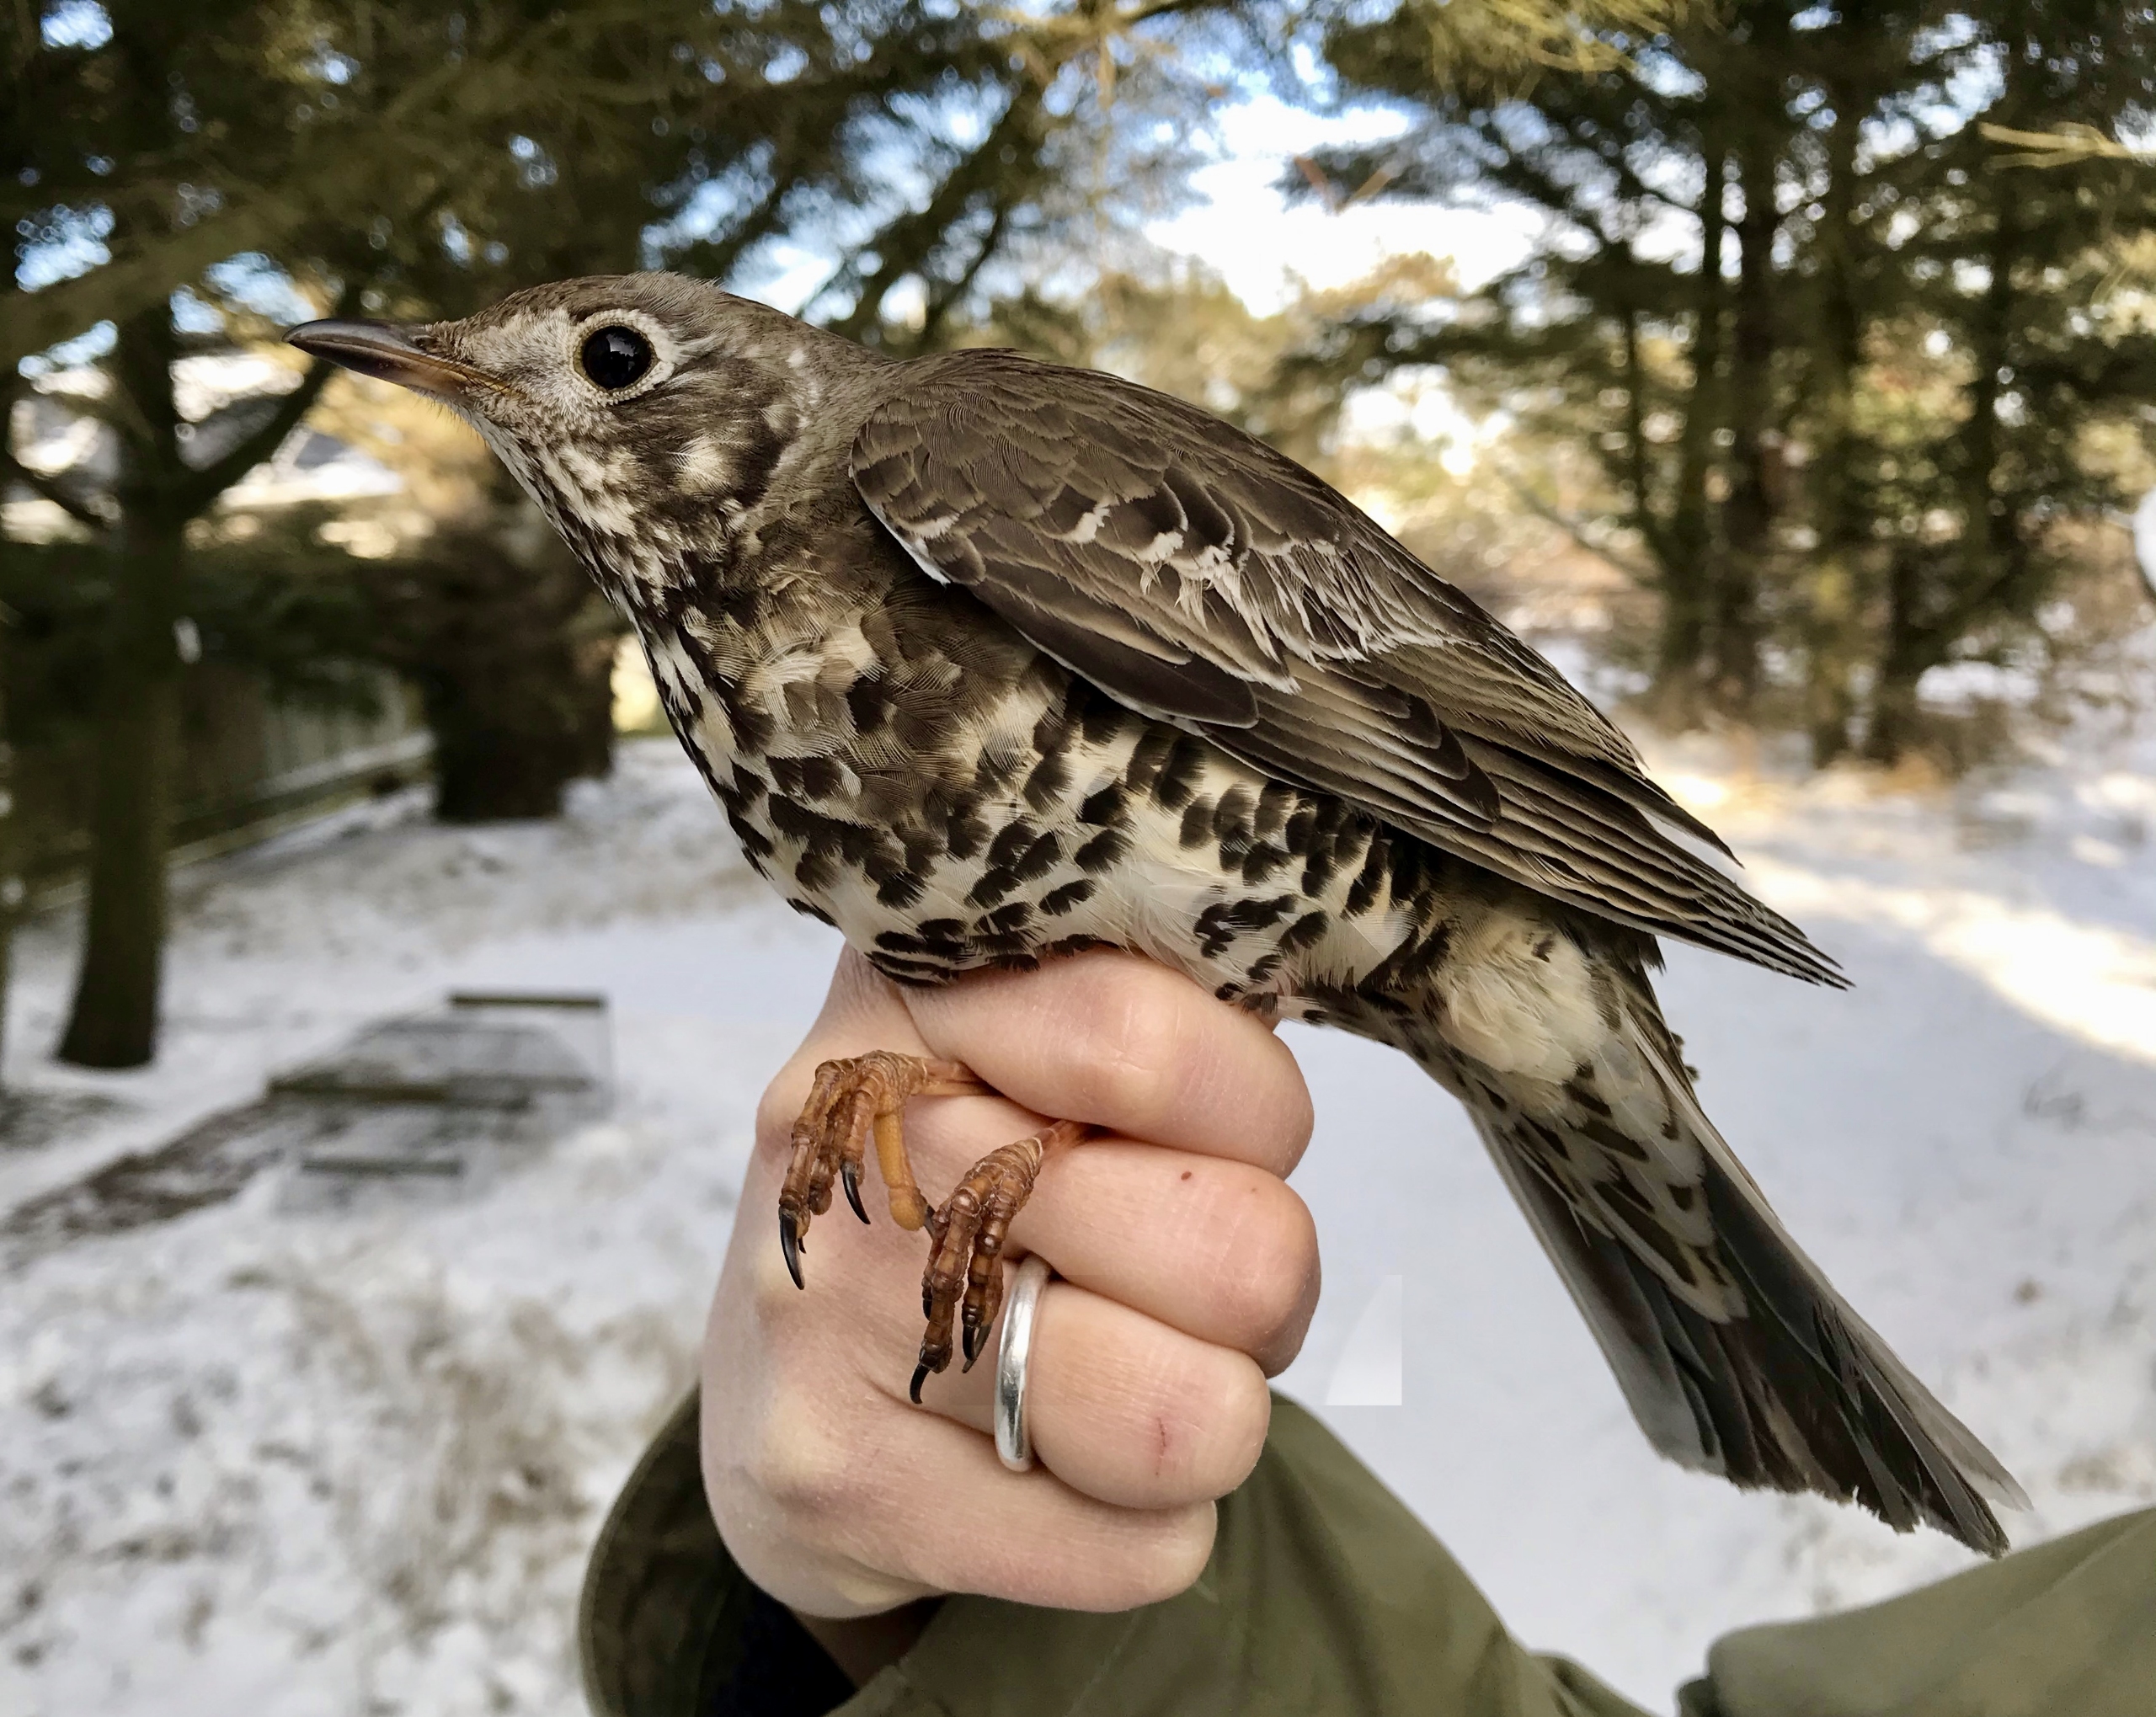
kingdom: Animalia
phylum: Chordata
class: Aves
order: Passeriformes
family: Turdidae
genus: Turdus
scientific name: Turdus viscivorus
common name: Misteldrossel
